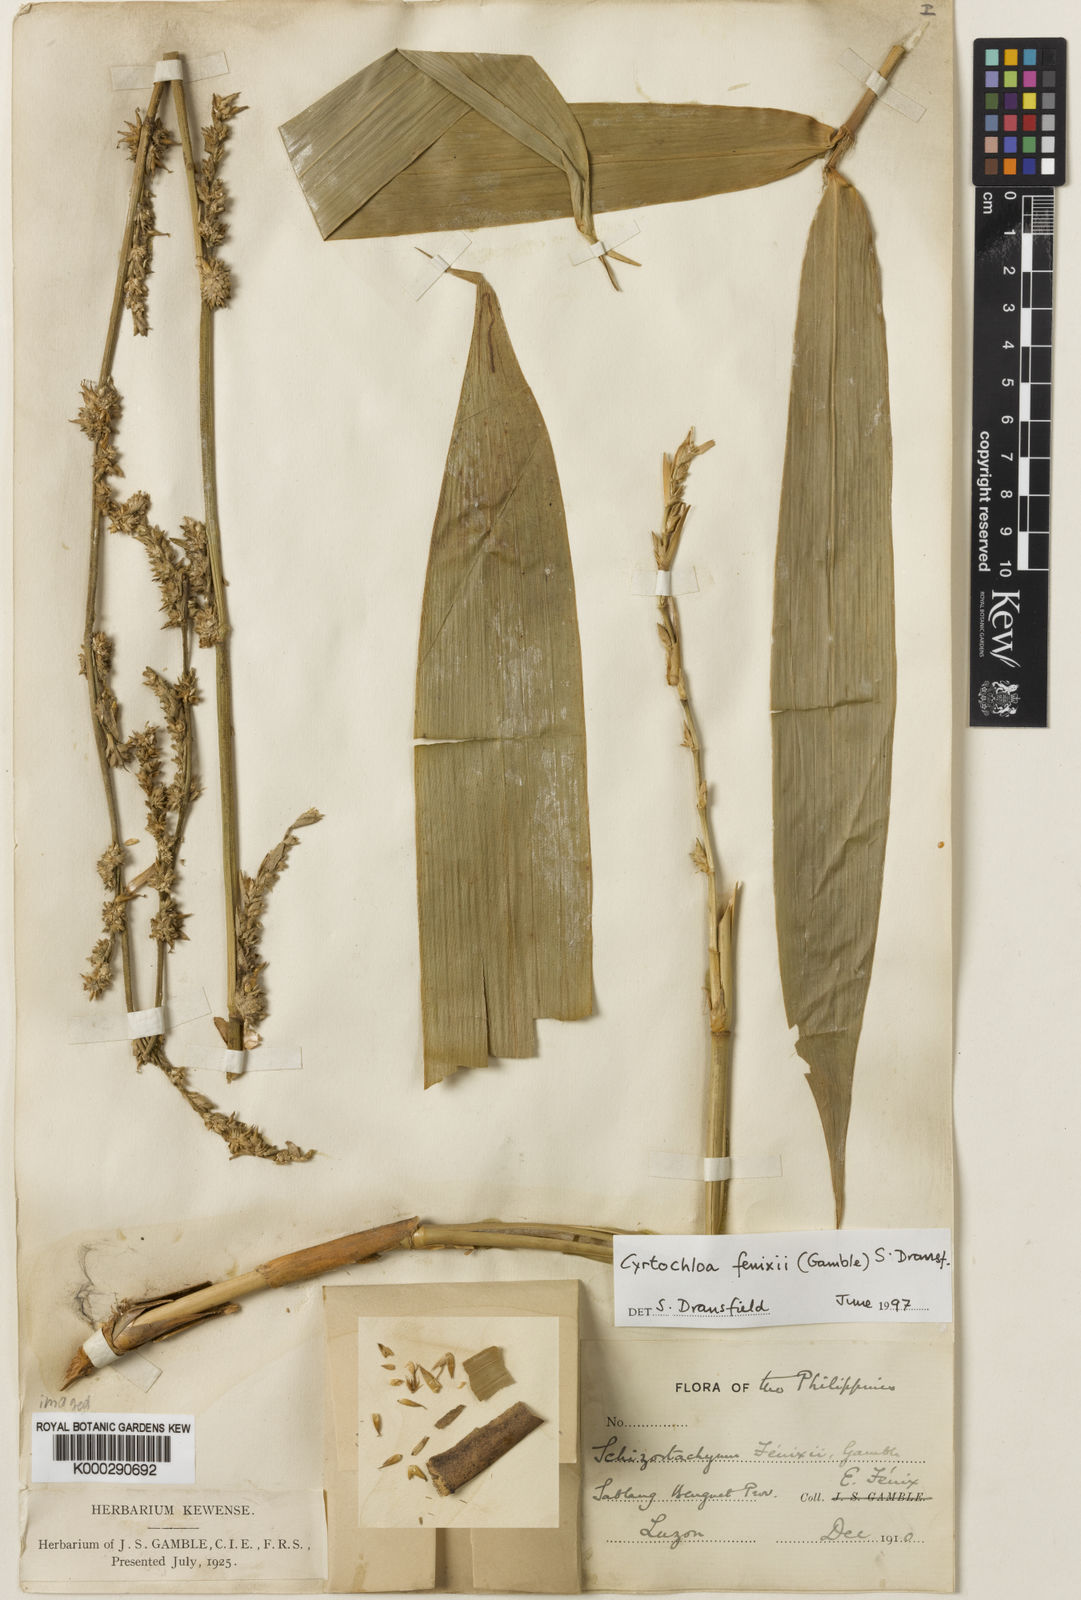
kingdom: Plantae
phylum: Tracheophyta
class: Liliopsida
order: Poales
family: Poaceae
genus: Cyrtochloa
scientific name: Cyrtochloa fenixii
